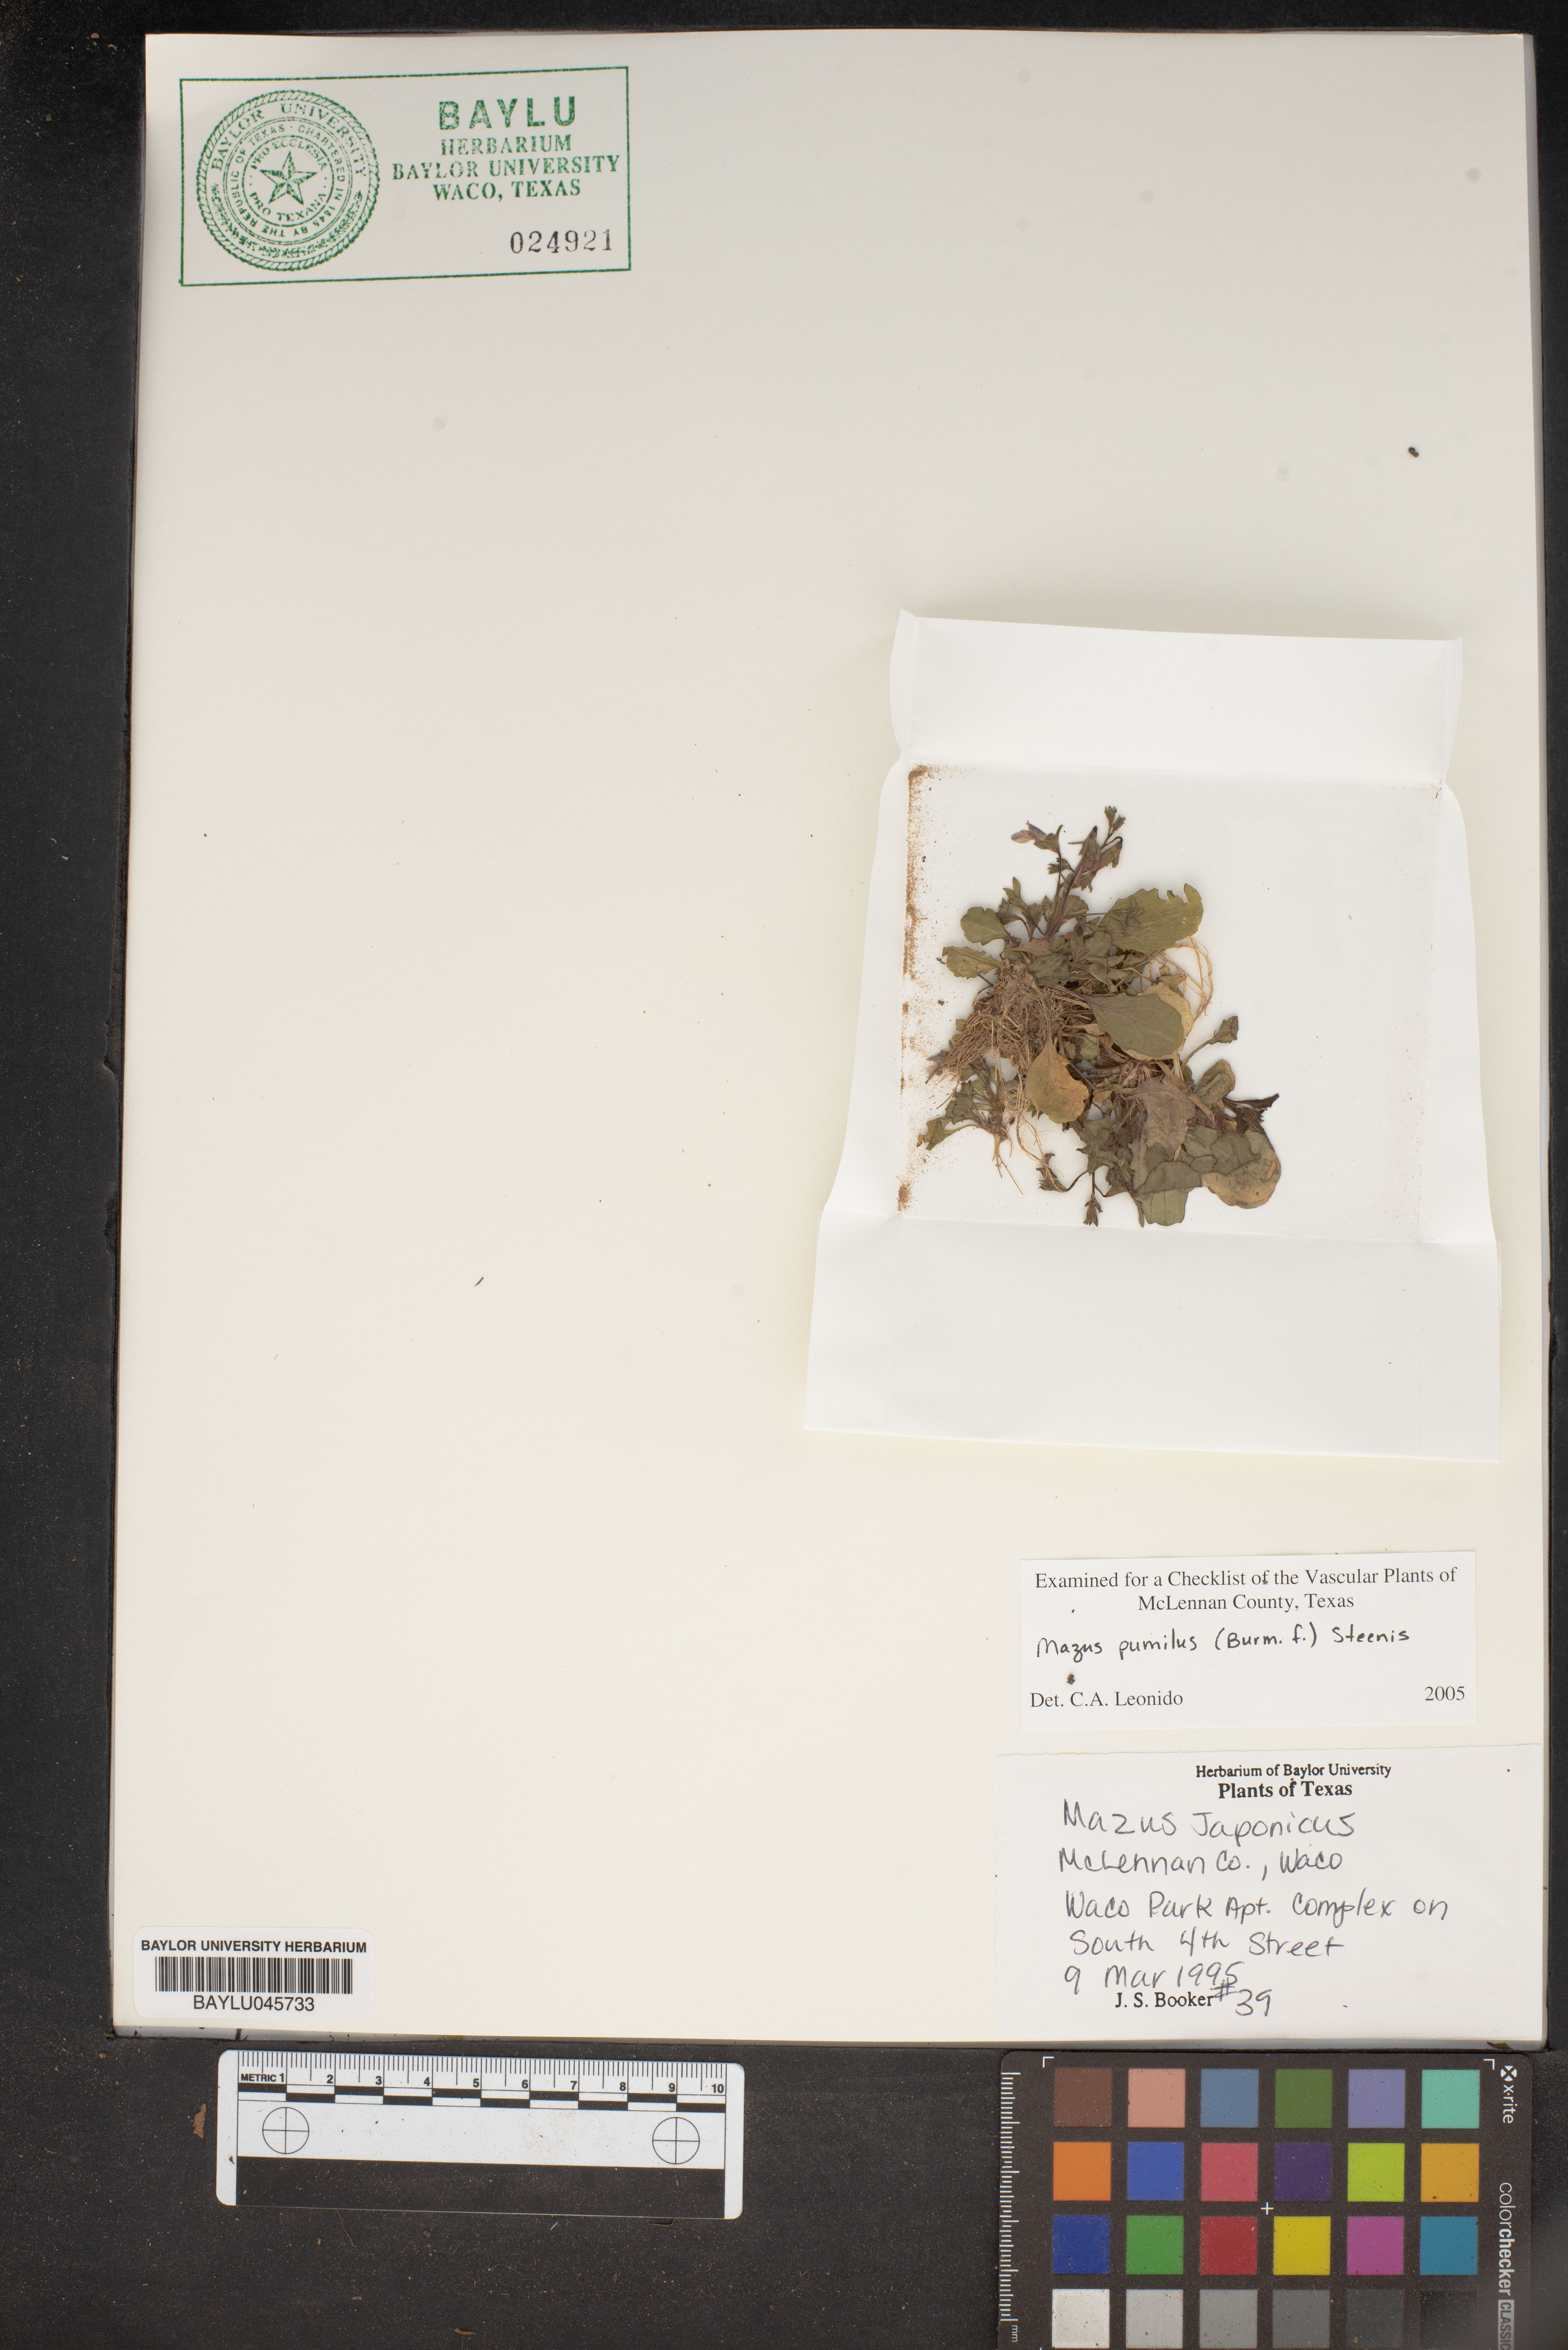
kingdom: Plantae
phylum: Tracheophyta
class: Magnoliopsida
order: Lamiales
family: Mazaceae
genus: Mazus
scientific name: Mazus pumilus
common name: Japanese mazus
